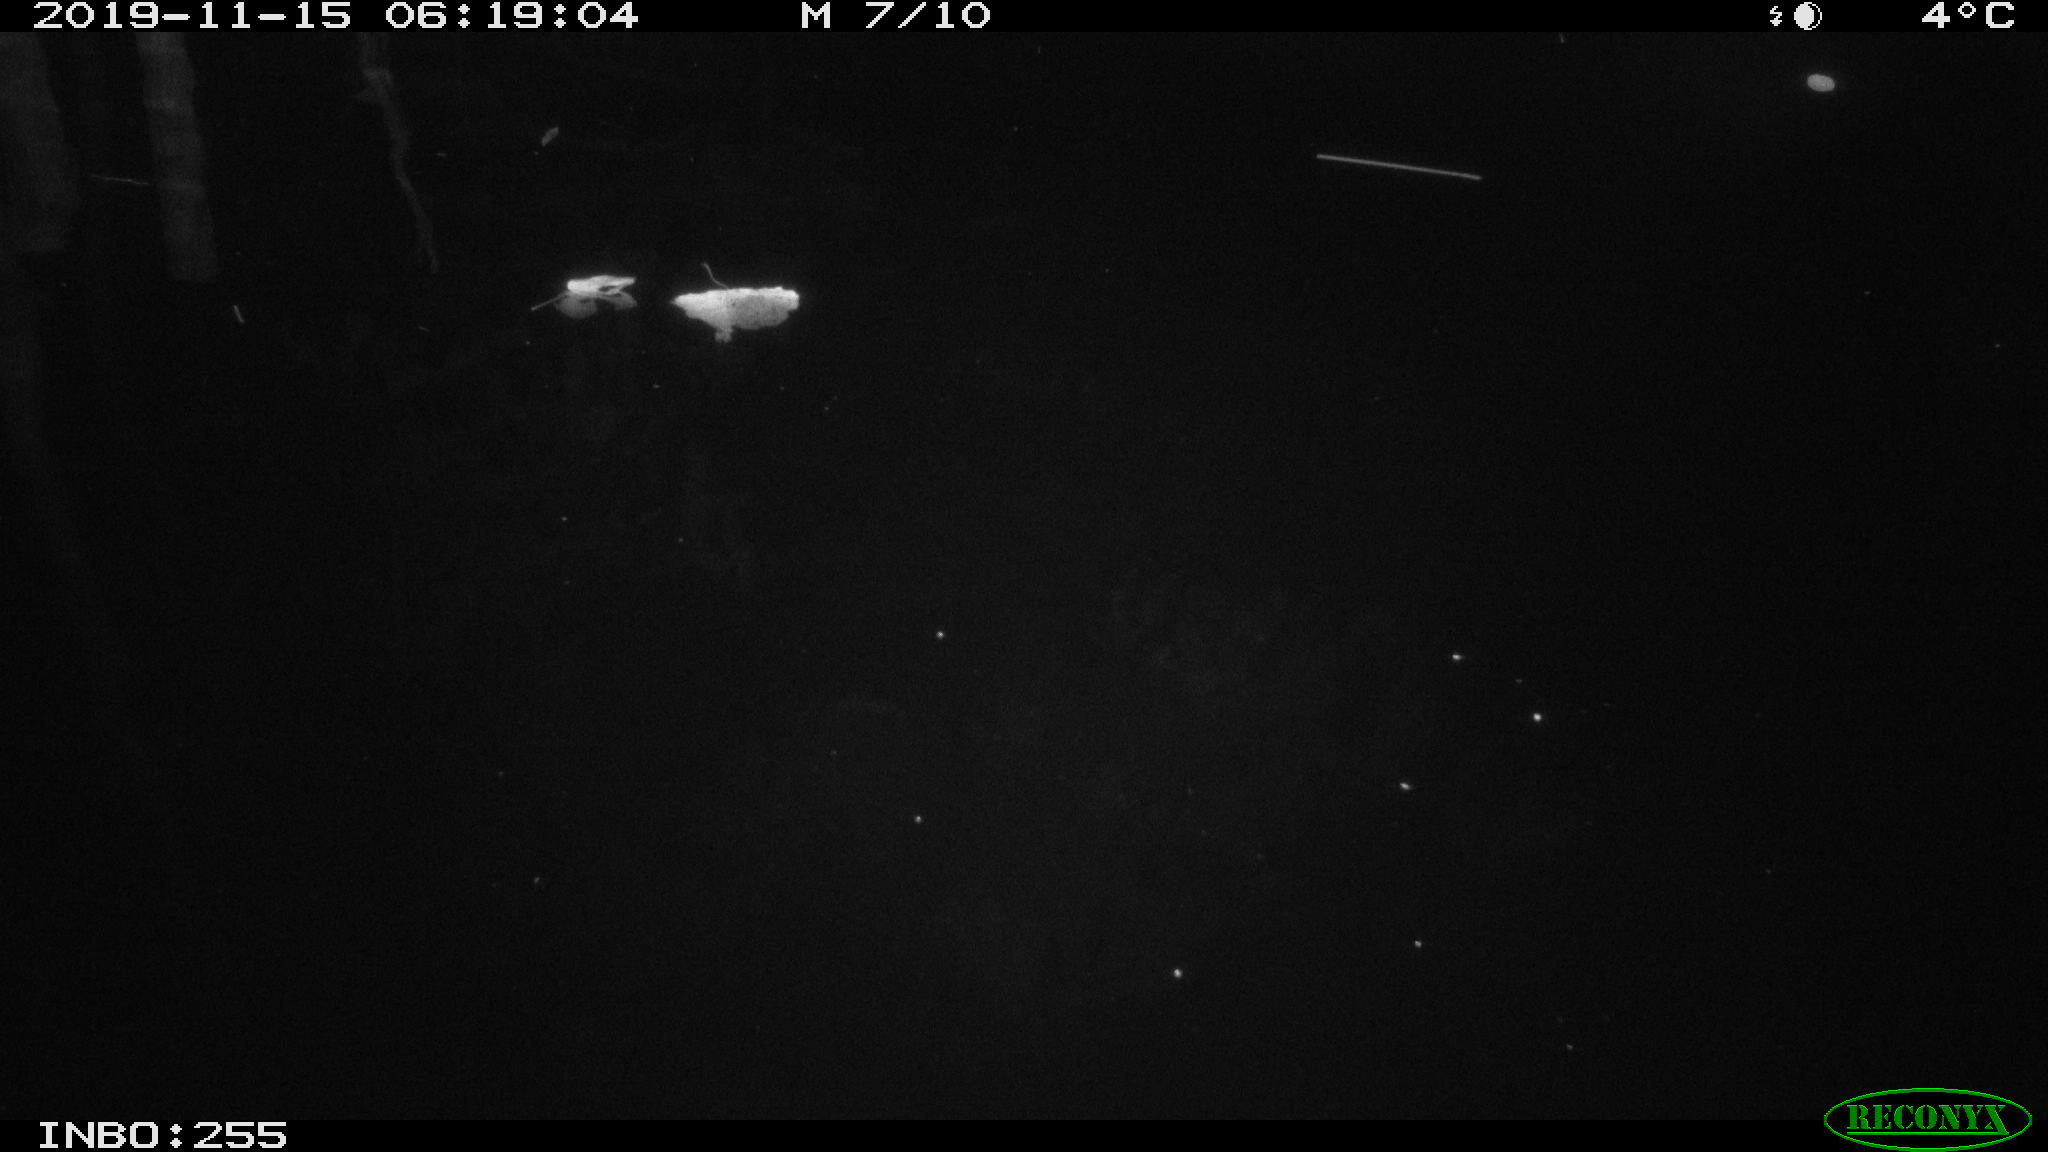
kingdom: Animalia
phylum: Chordata
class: Mammalia
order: Rodentia
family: Cricetidae
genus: Ondatra
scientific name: Ondatra zibethicus
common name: Muskrat
